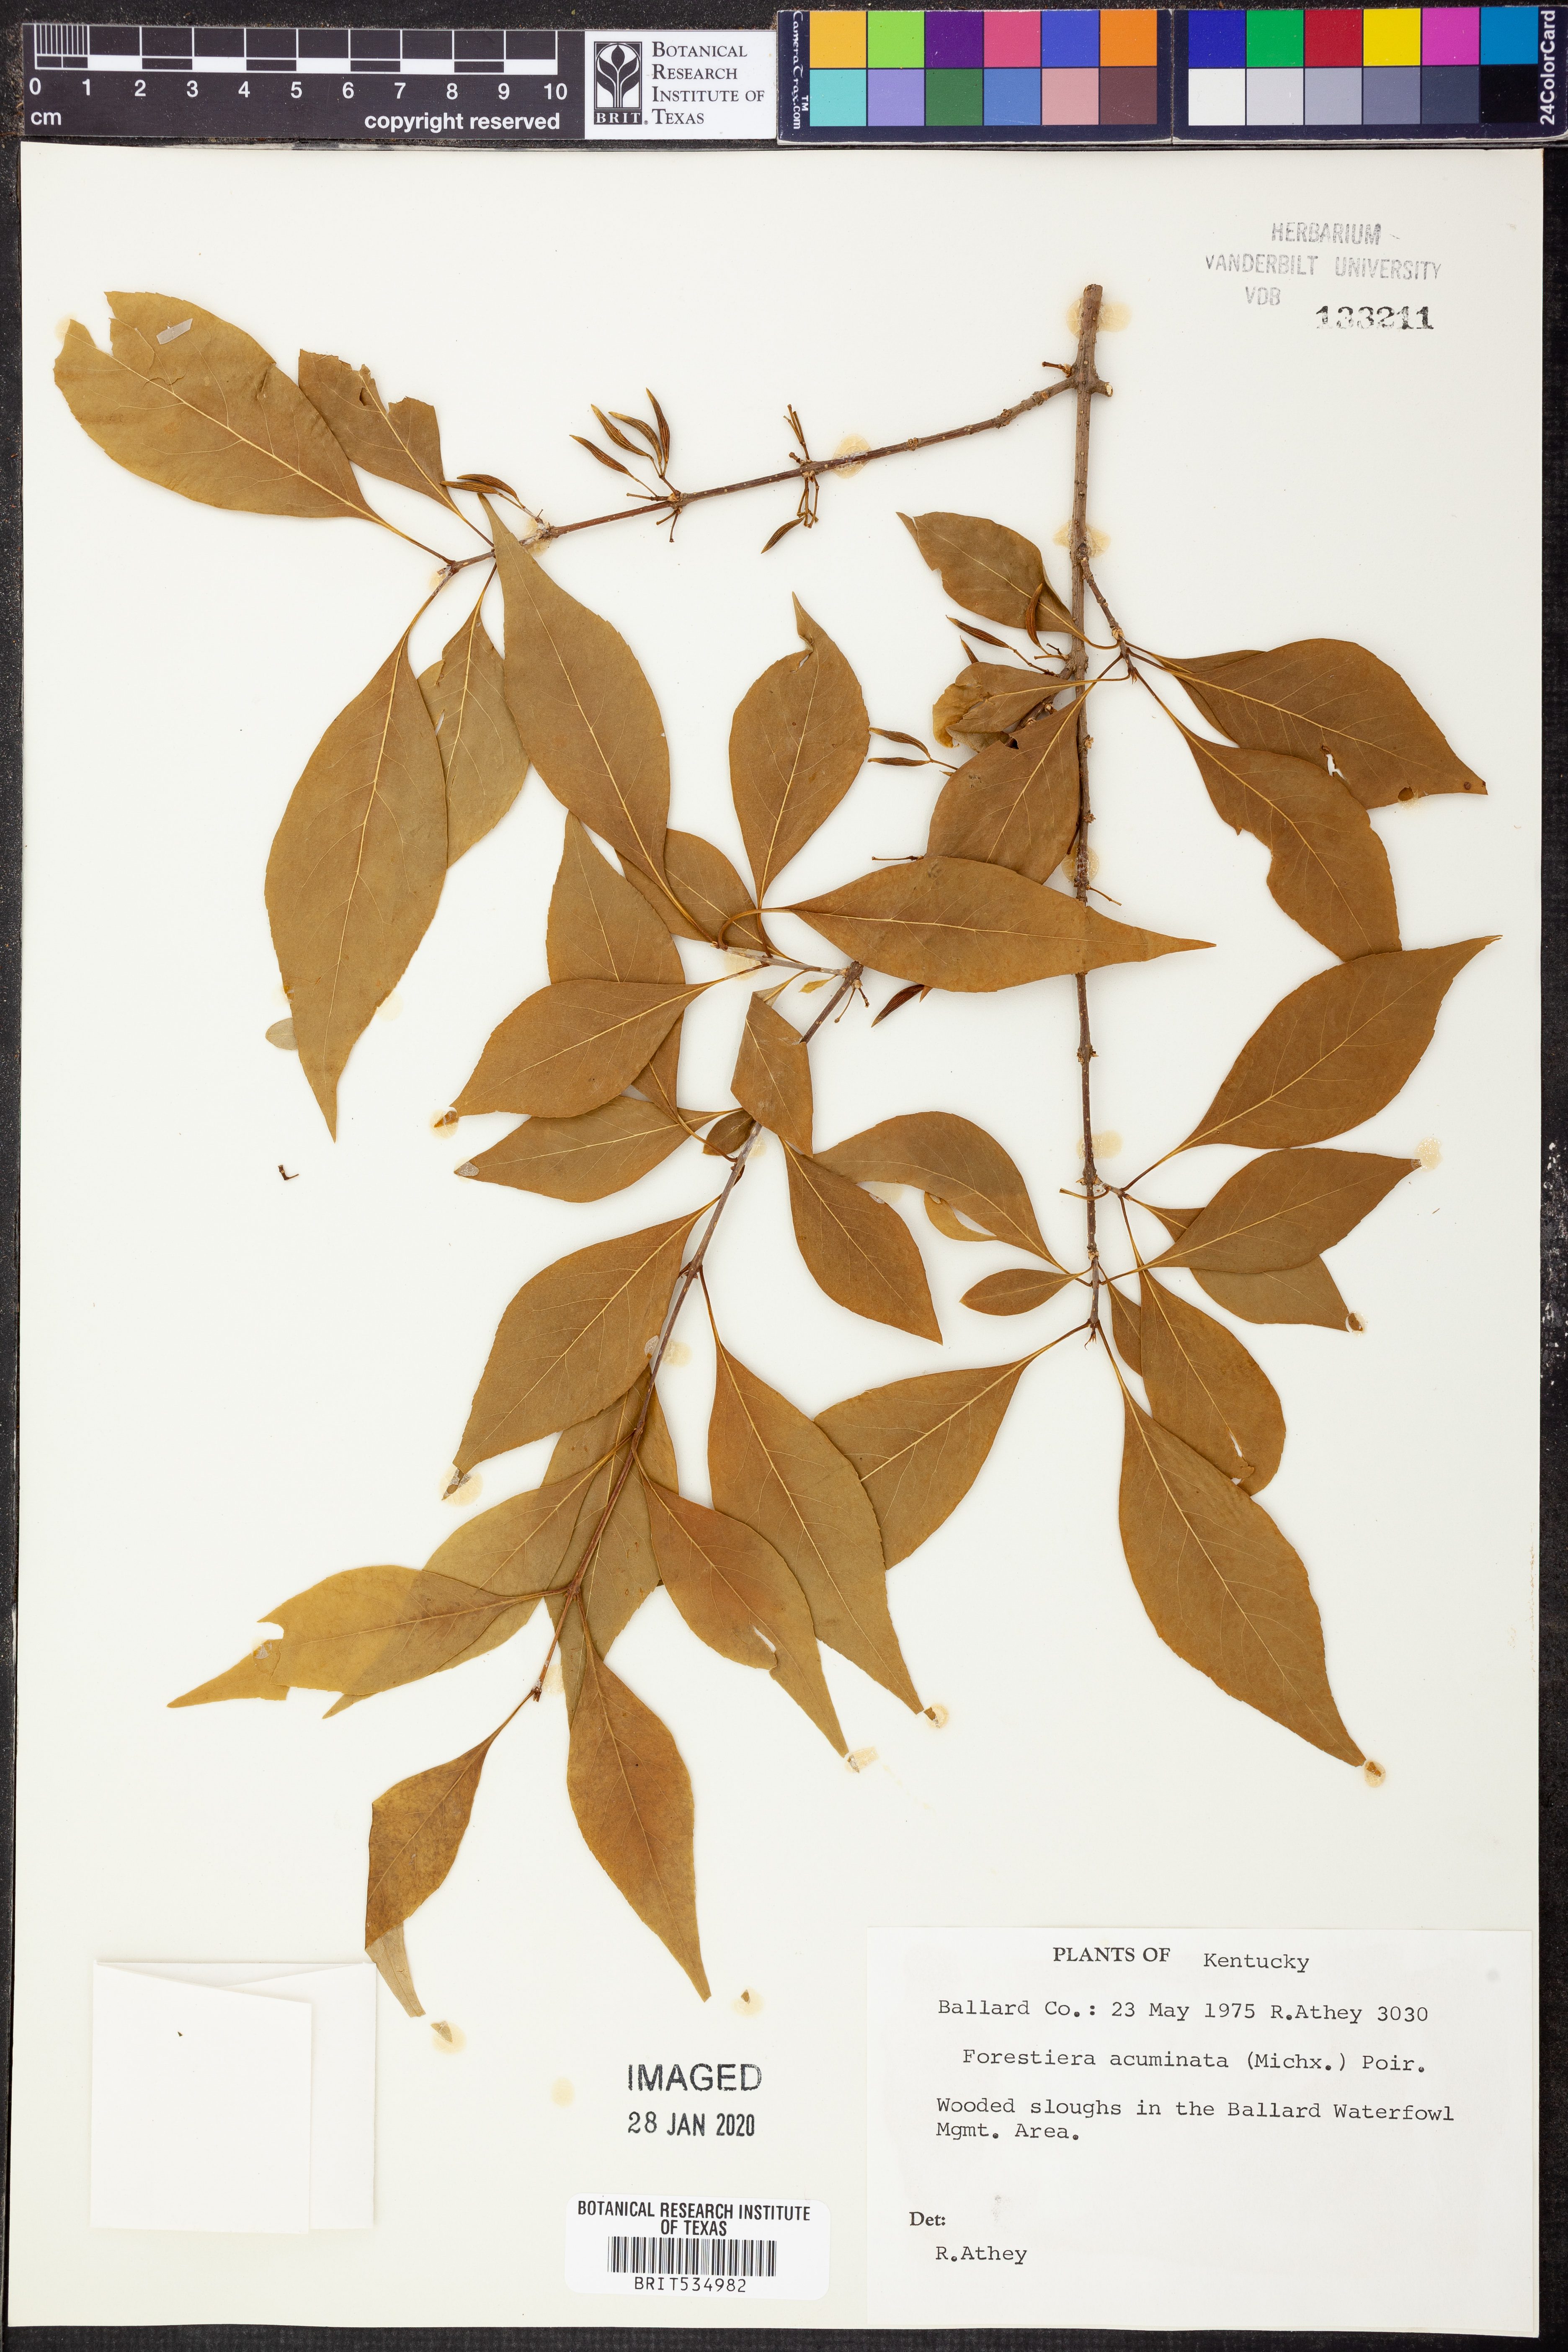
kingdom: Plantae
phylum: Tracheophyta
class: Magnoliopsida
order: Lamiales
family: Oleaceae
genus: Forestiera
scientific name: Forestiera acuminata
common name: Swamp-privet
